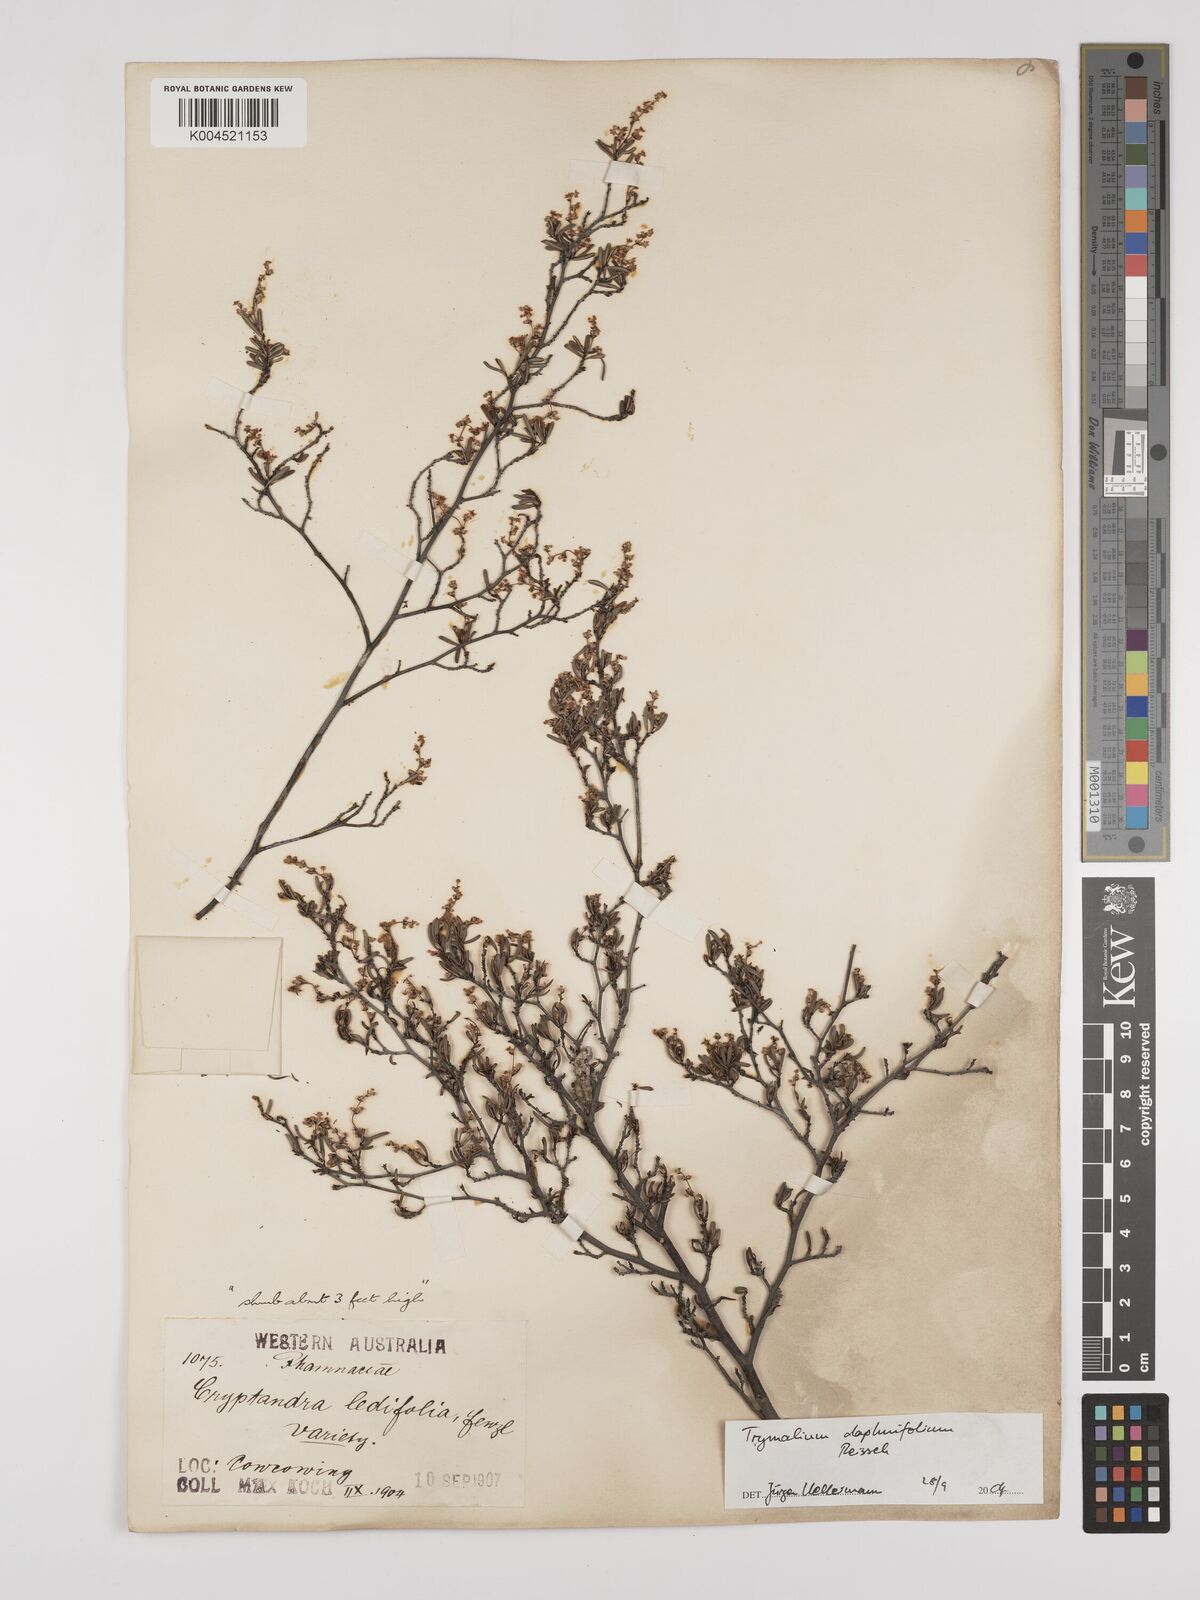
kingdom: Plantae
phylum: Tracheophyta
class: Magnoliopsida
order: Rosales
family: Rhamnaceae
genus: Trymalium
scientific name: Trymalium angustifolium
